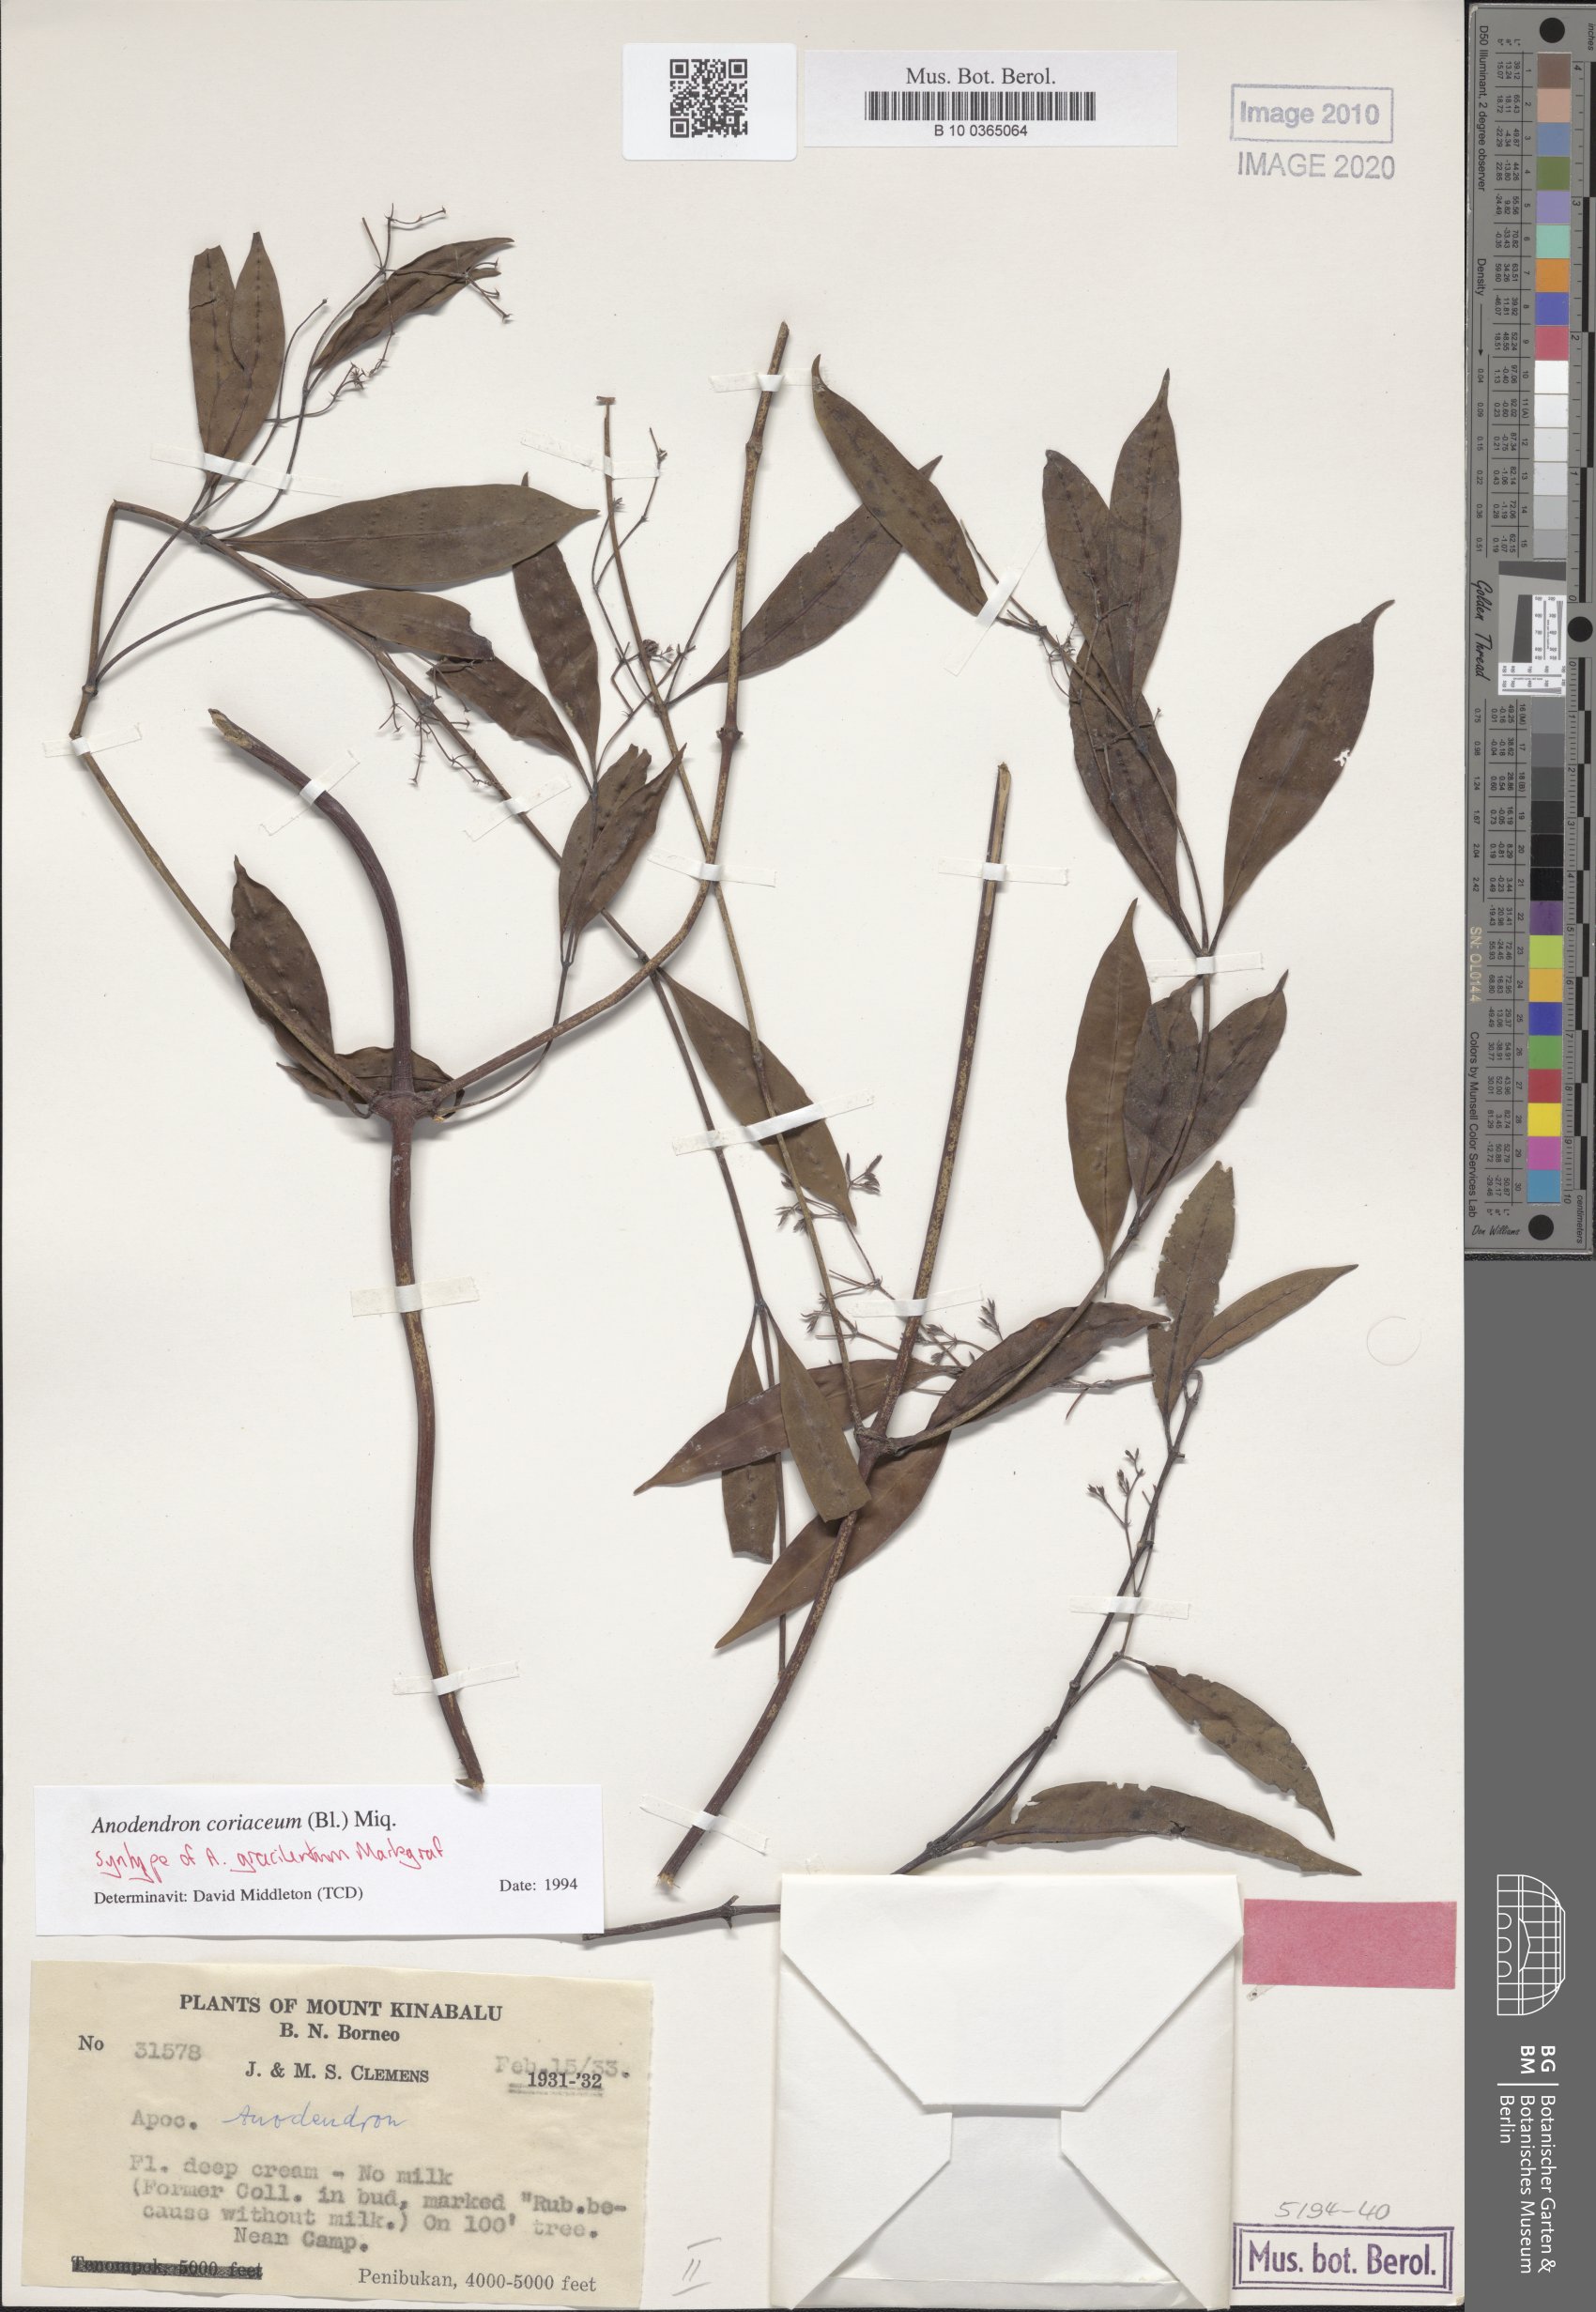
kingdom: Plantae
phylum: Tracheophyta
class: Magnoliopsida
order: Gentianales
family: Apocynaceae
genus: Anodendron
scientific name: Anodendron coriaceum
